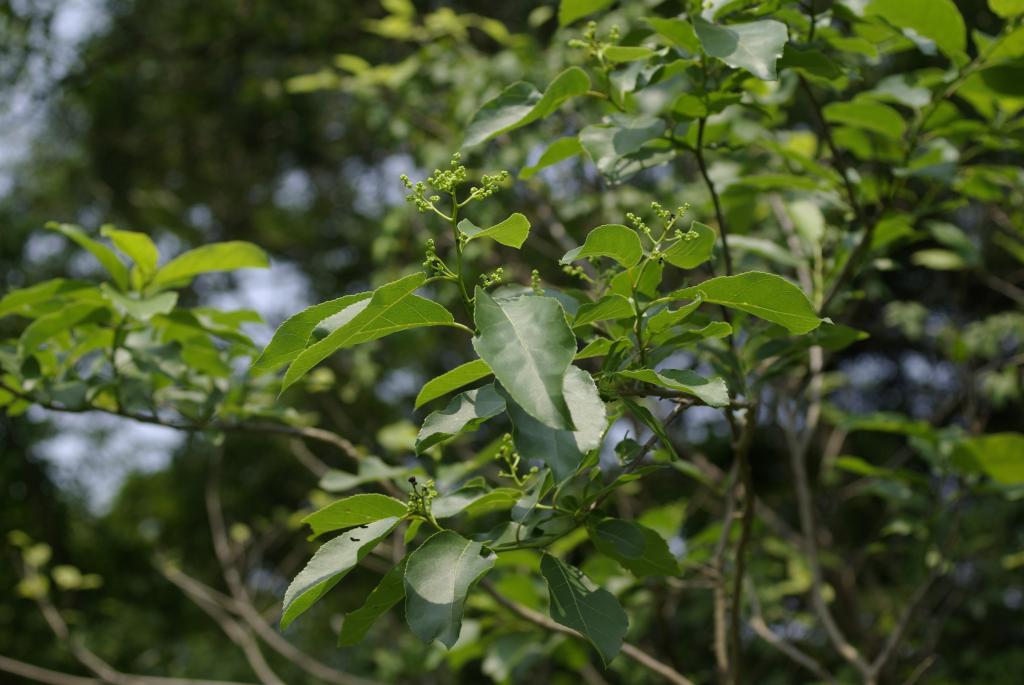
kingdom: Plantae
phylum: Tracheophyta
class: Magnoliopsida
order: Boraginales
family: Ehretiaceae
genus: Ehretia
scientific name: Ehretia acuminata
